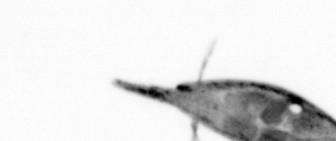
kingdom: Animalia
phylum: Arthropoda
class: Maxillopoda
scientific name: Maxillopoda
